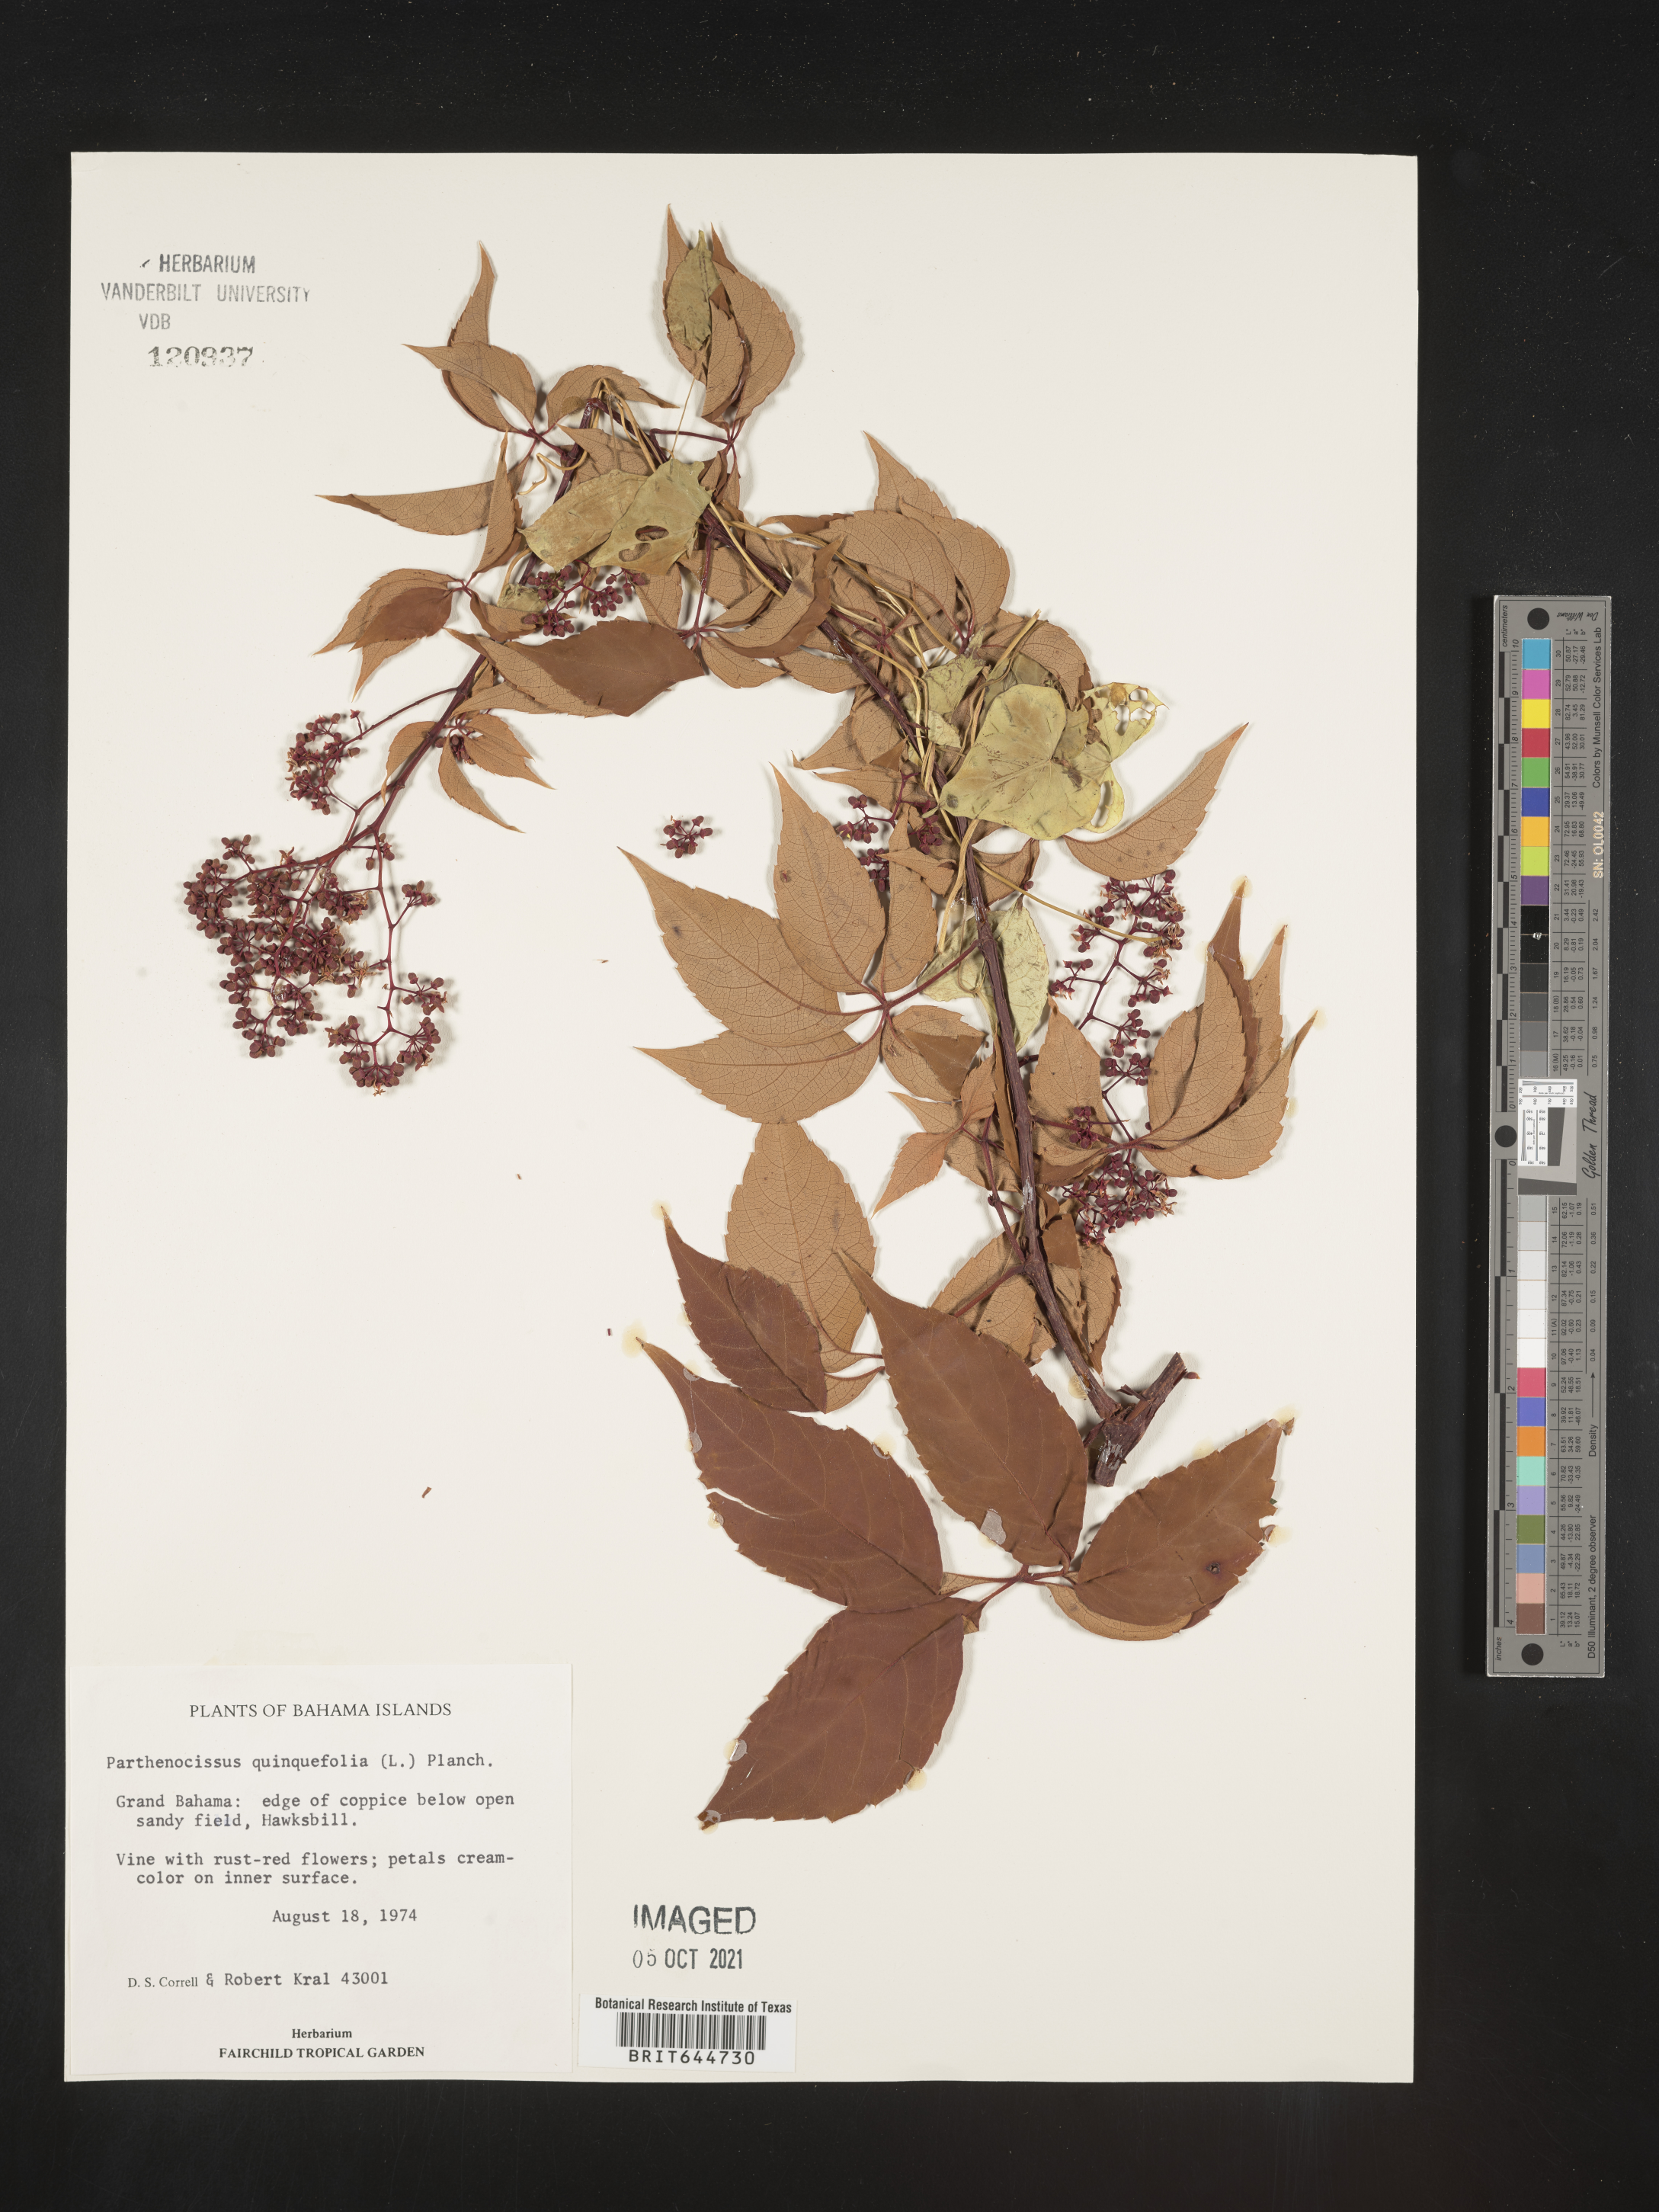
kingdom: Plantae
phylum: Tracheophyta
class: Magnoliopsida
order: Vitales
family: Vitaceae
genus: Parthenocissus
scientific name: Parthenocissus
